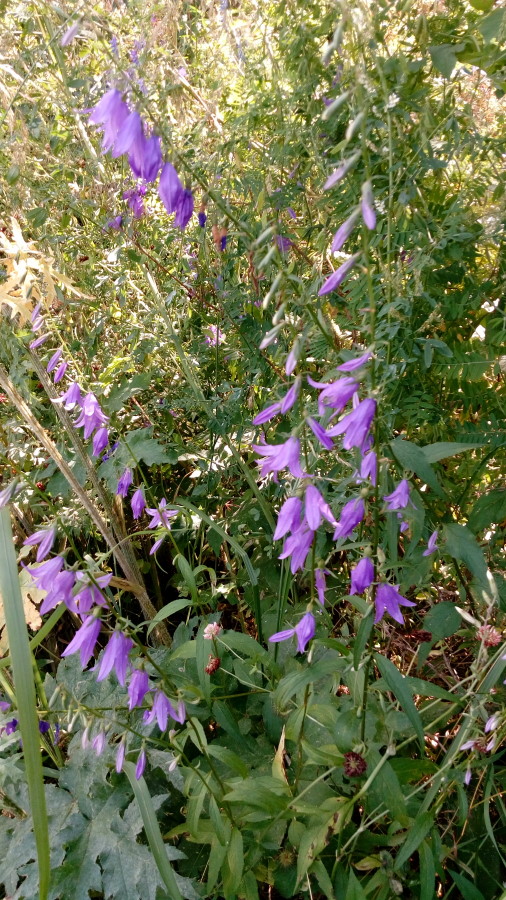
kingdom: Plantae
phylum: Tracheophyta
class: Magnoliopsida
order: Asterales
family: Campanulaceae
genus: Campanula
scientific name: Campanula bononiensis
